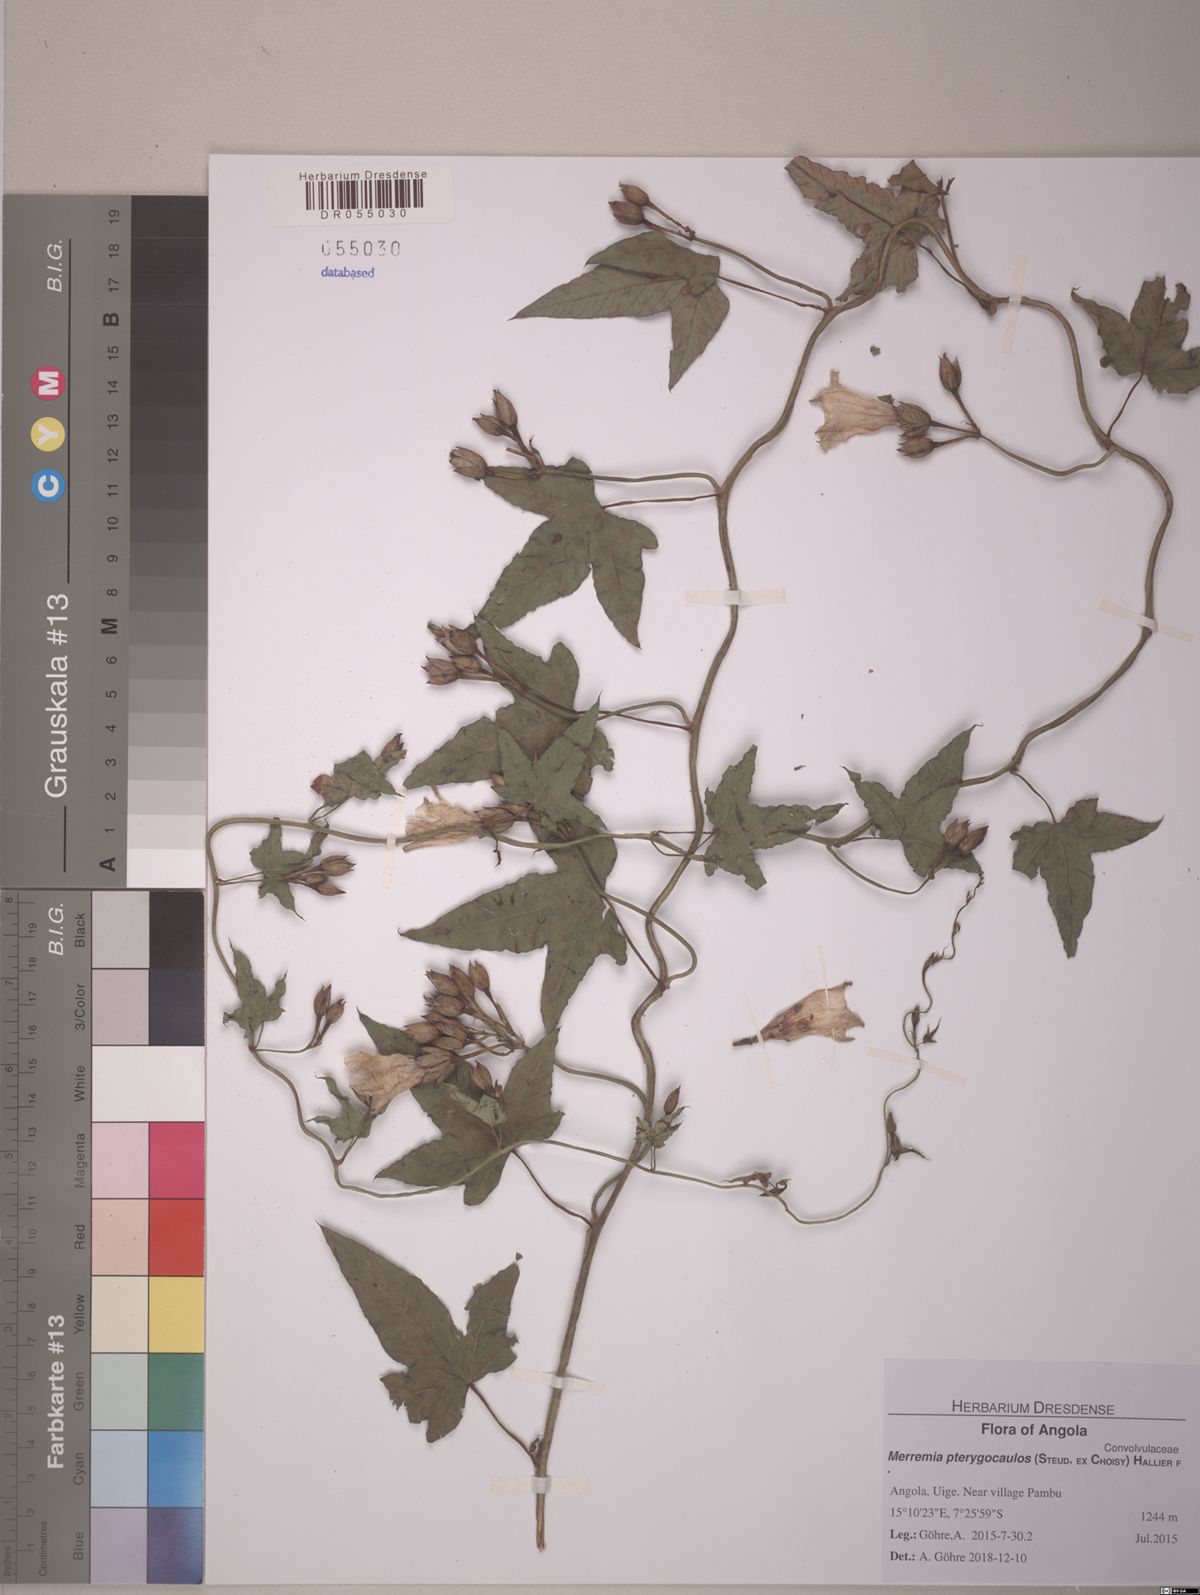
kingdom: Plantae
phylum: Tracheophyta
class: Magnoliopsida
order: Solanales
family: Convolvulaceae
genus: Merremia
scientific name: Merremia pterygocaulos
